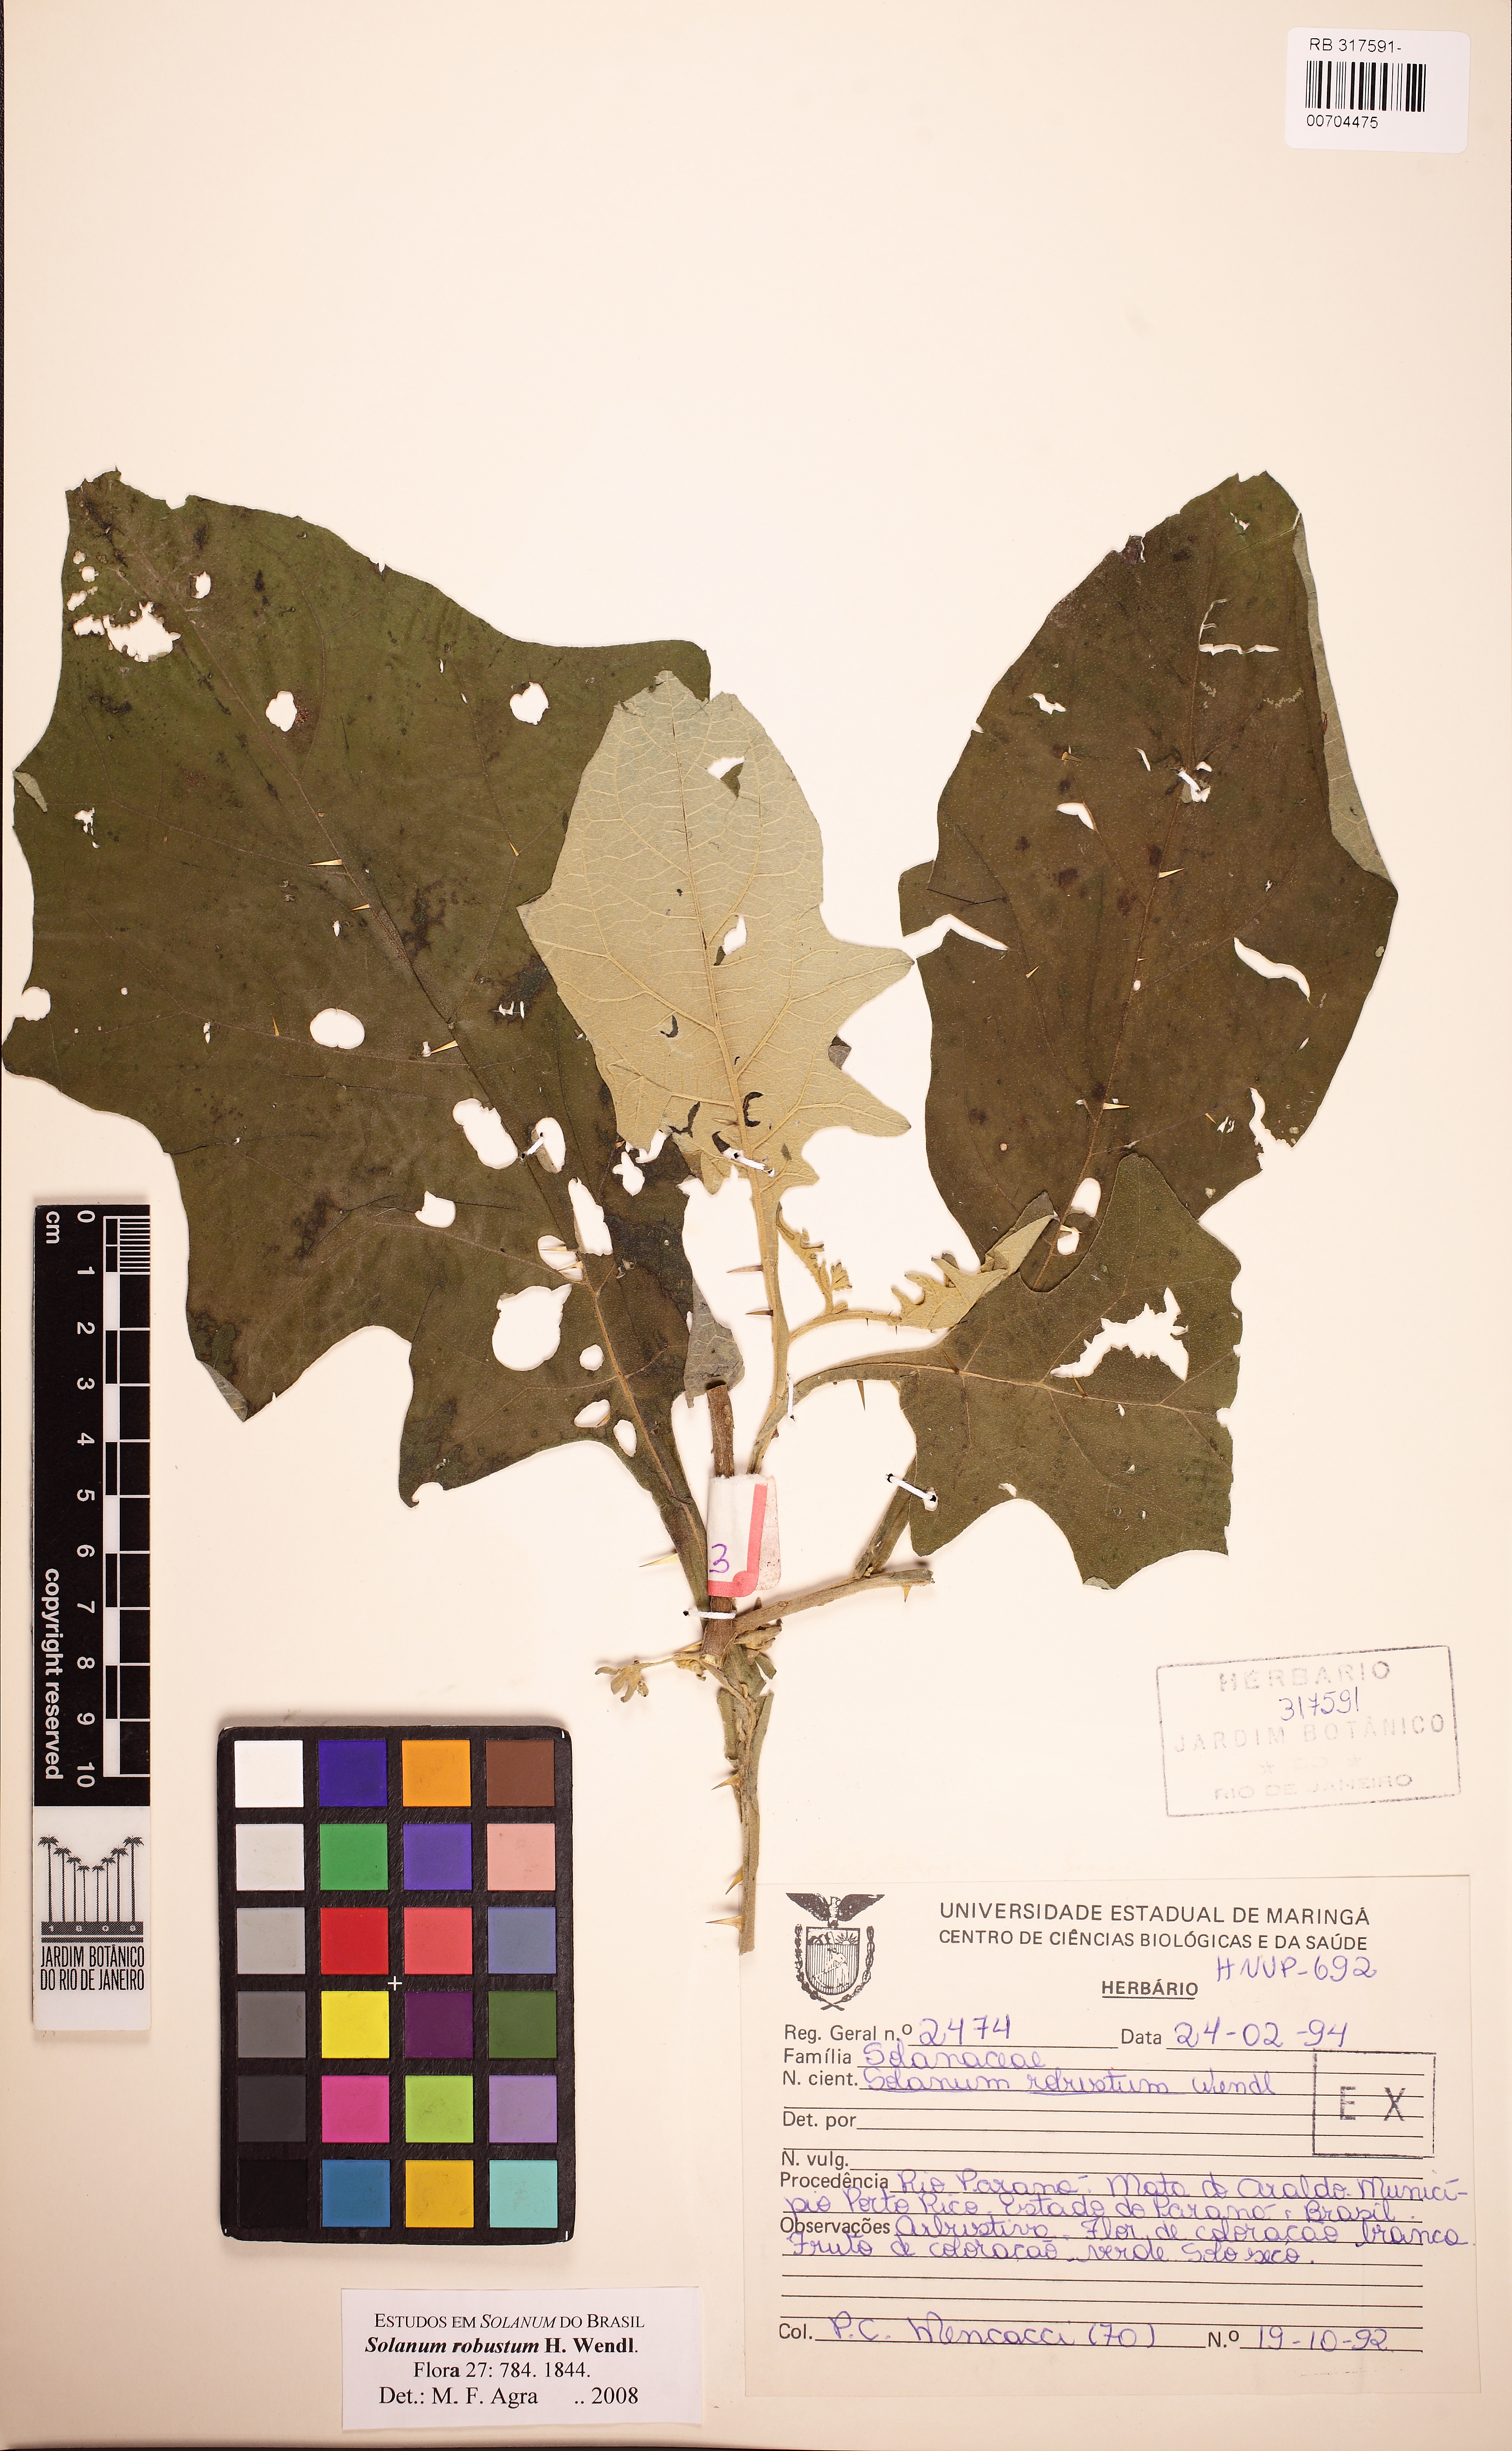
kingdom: Plantae
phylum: Tracheophyta
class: Magnoliopsida
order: Solanales
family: Solanaceae
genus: Solanum
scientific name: Solanum robustum
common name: Shrubby nightshade
